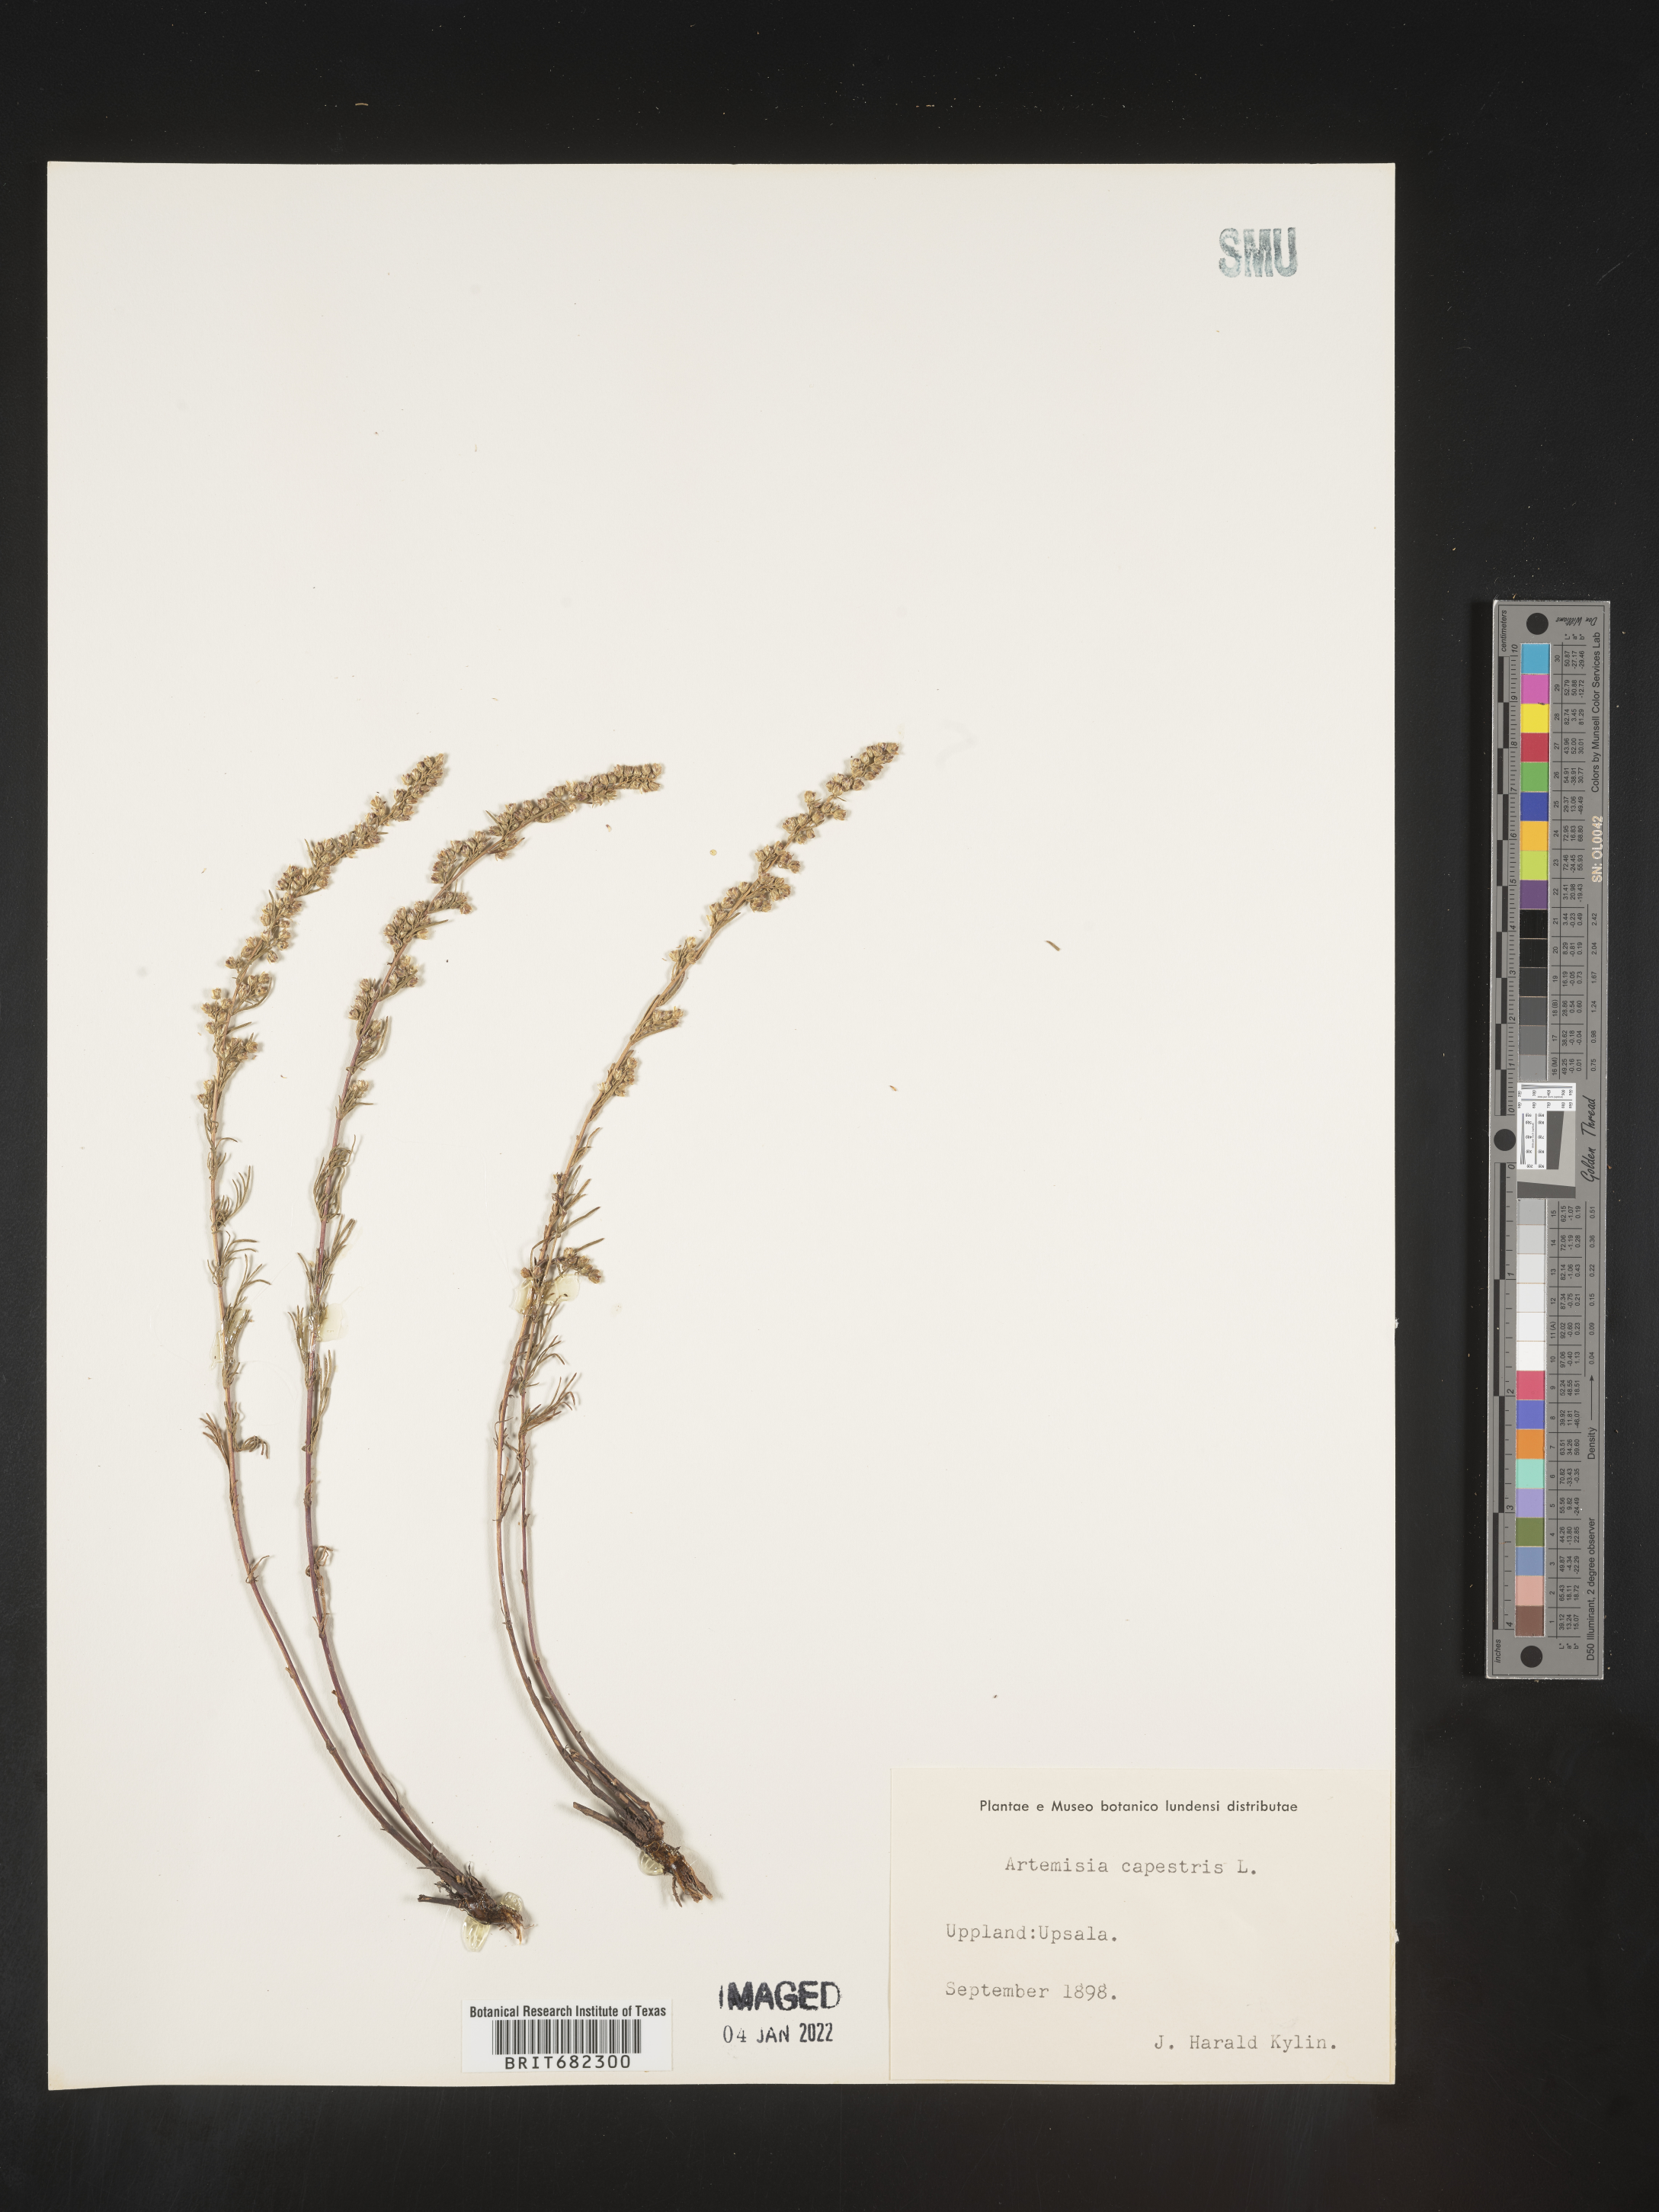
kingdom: Plantae
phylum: Tracheophyta
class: Magnoliopsida
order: Asterales
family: Asteraceae
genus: Artemisia
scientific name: Artemisia campestris
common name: Field wormwood
